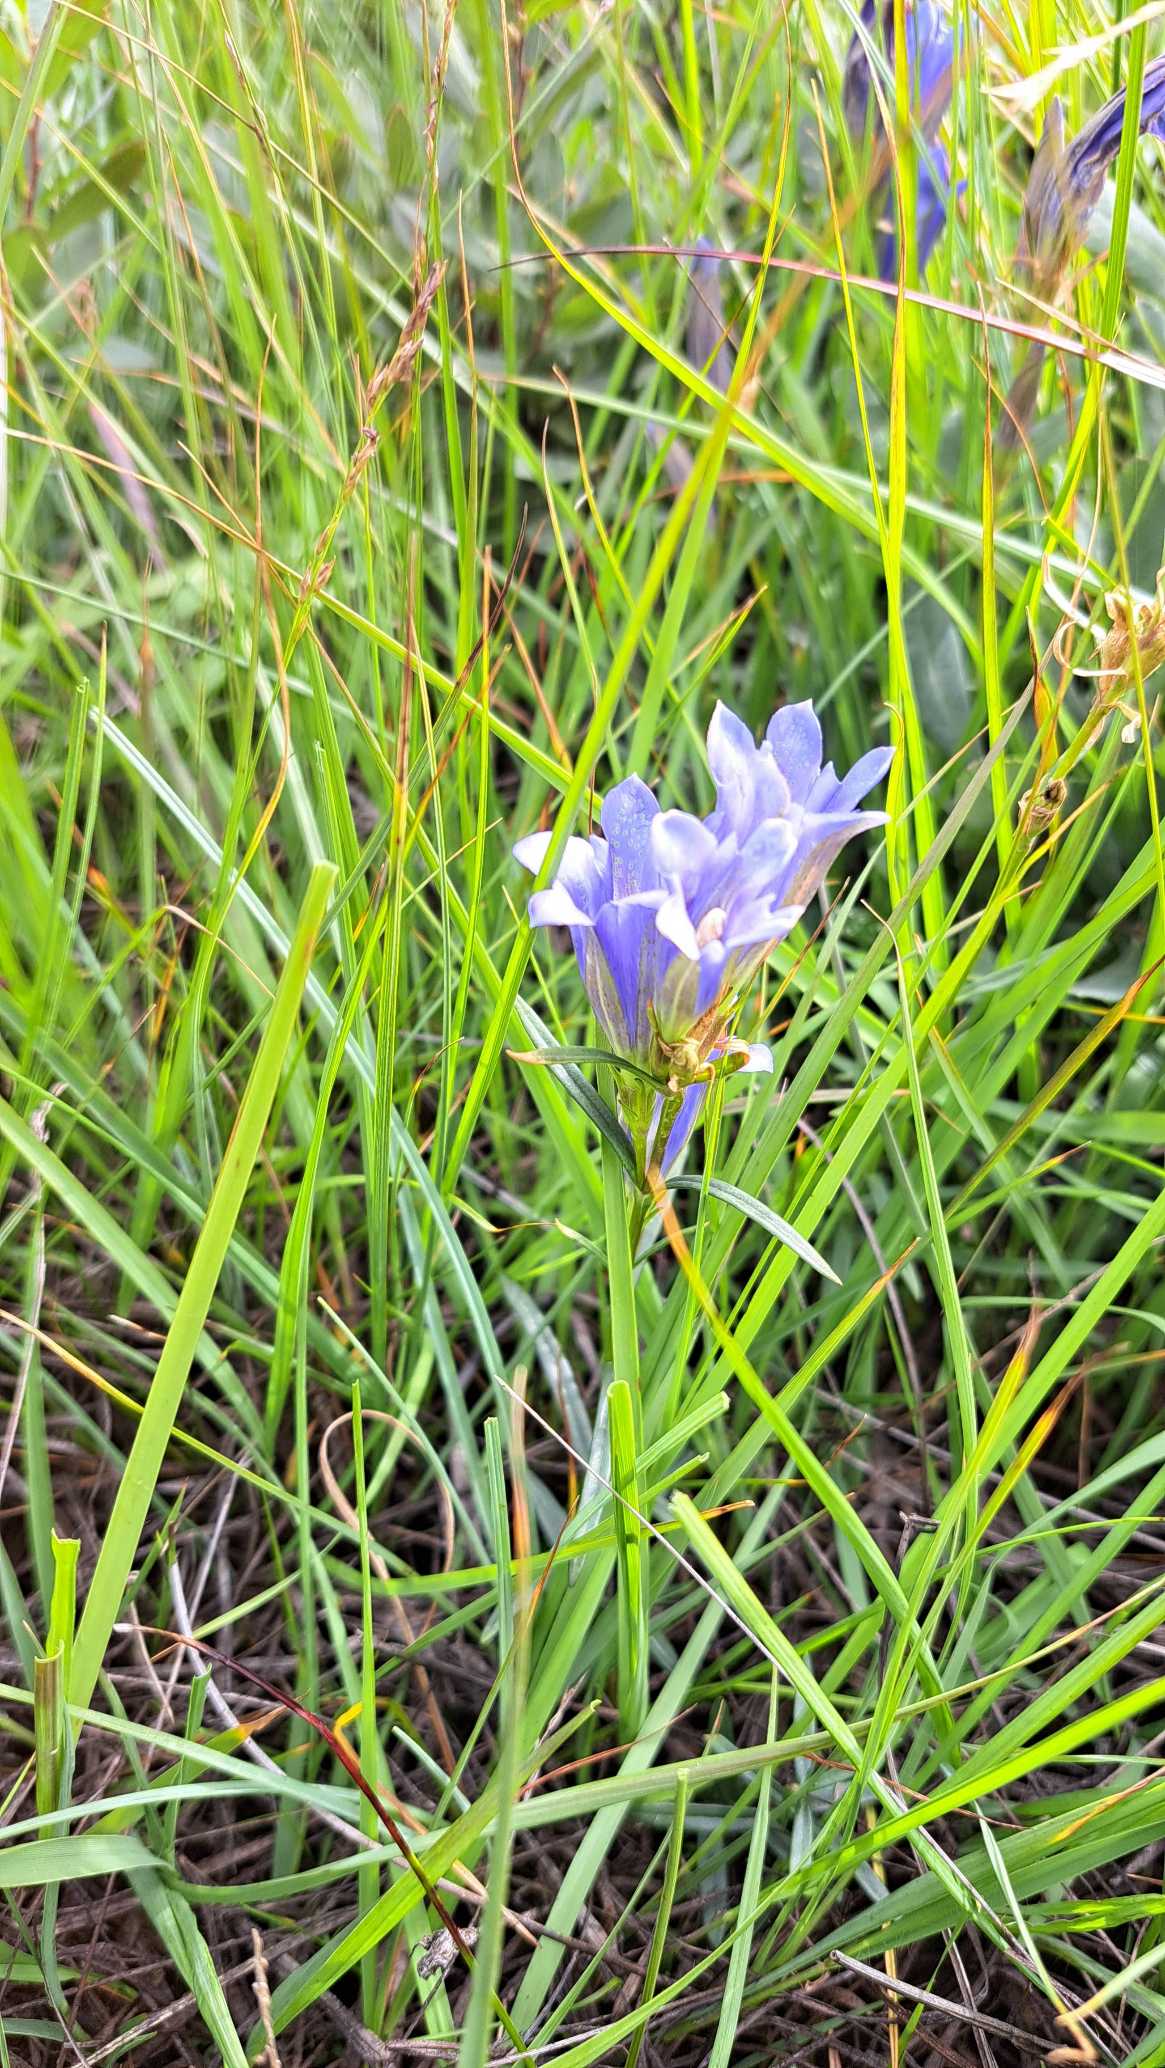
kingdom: Plantae
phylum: Tracheophyta
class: Magnoliopsida
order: Gentianales
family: Gentianaceae
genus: Gentiana
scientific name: Gentiana pneumonanthe
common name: Klokke-ensian
